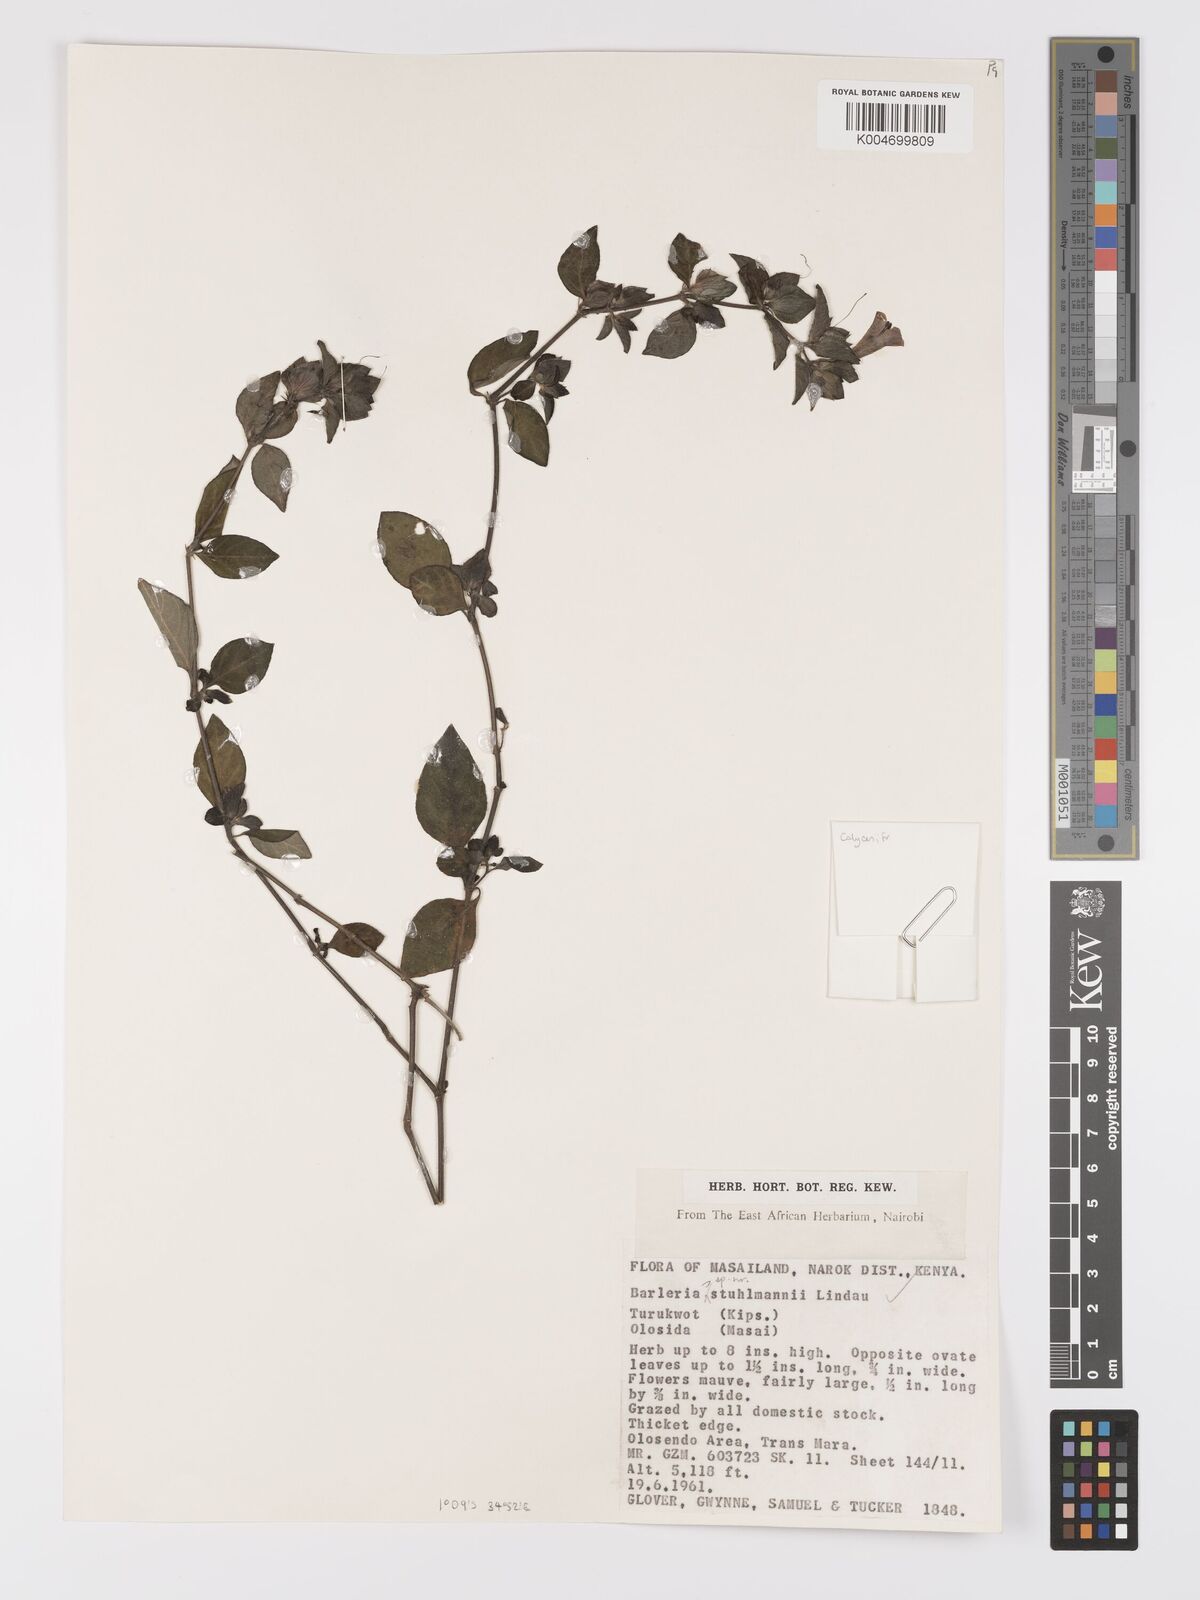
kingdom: Plantae
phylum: Tracheophyta
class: Magnoliopsida
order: Lamiales
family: Acanthaceae
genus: Barleria
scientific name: Barleria ventricosa
